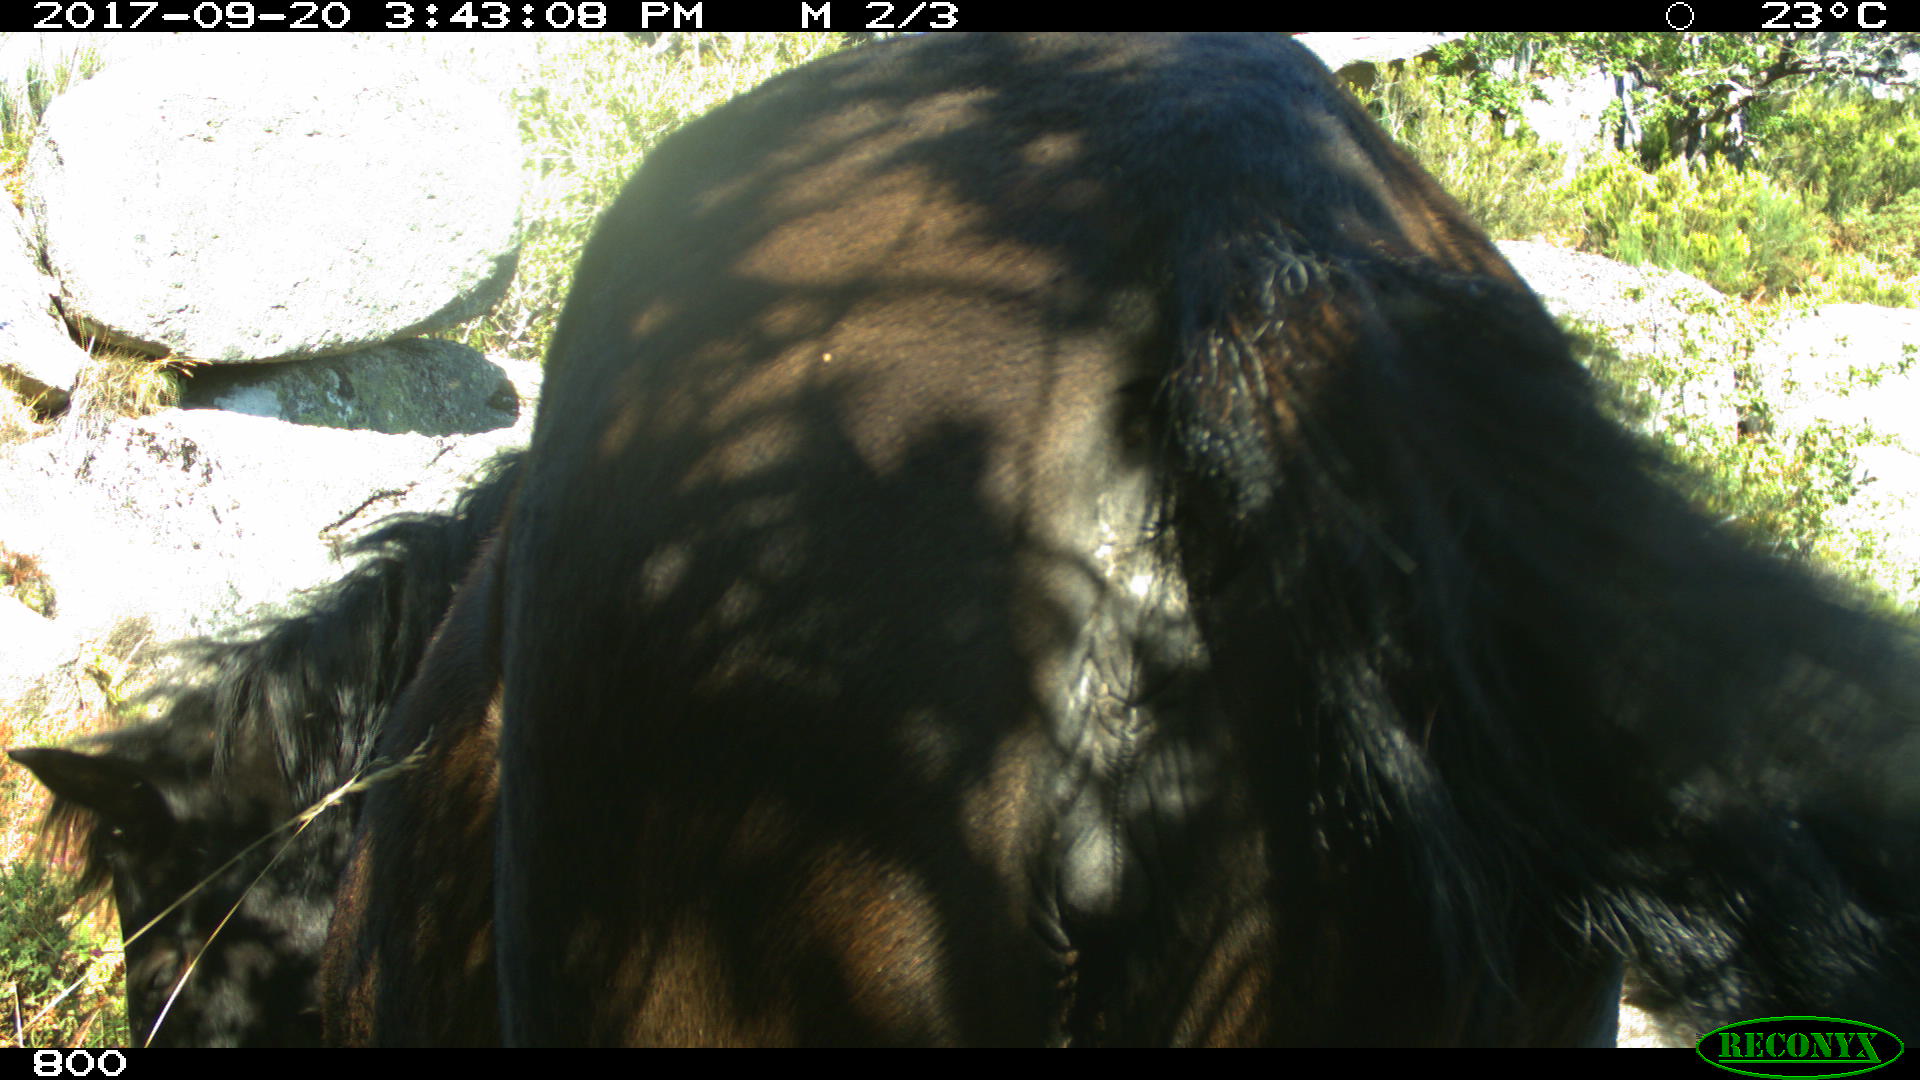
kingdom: Animalia
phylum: Chordata
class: Mammalia
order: Perissodactyla
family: Equidae
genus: Equus
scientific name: Equus caballus
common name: Horse
